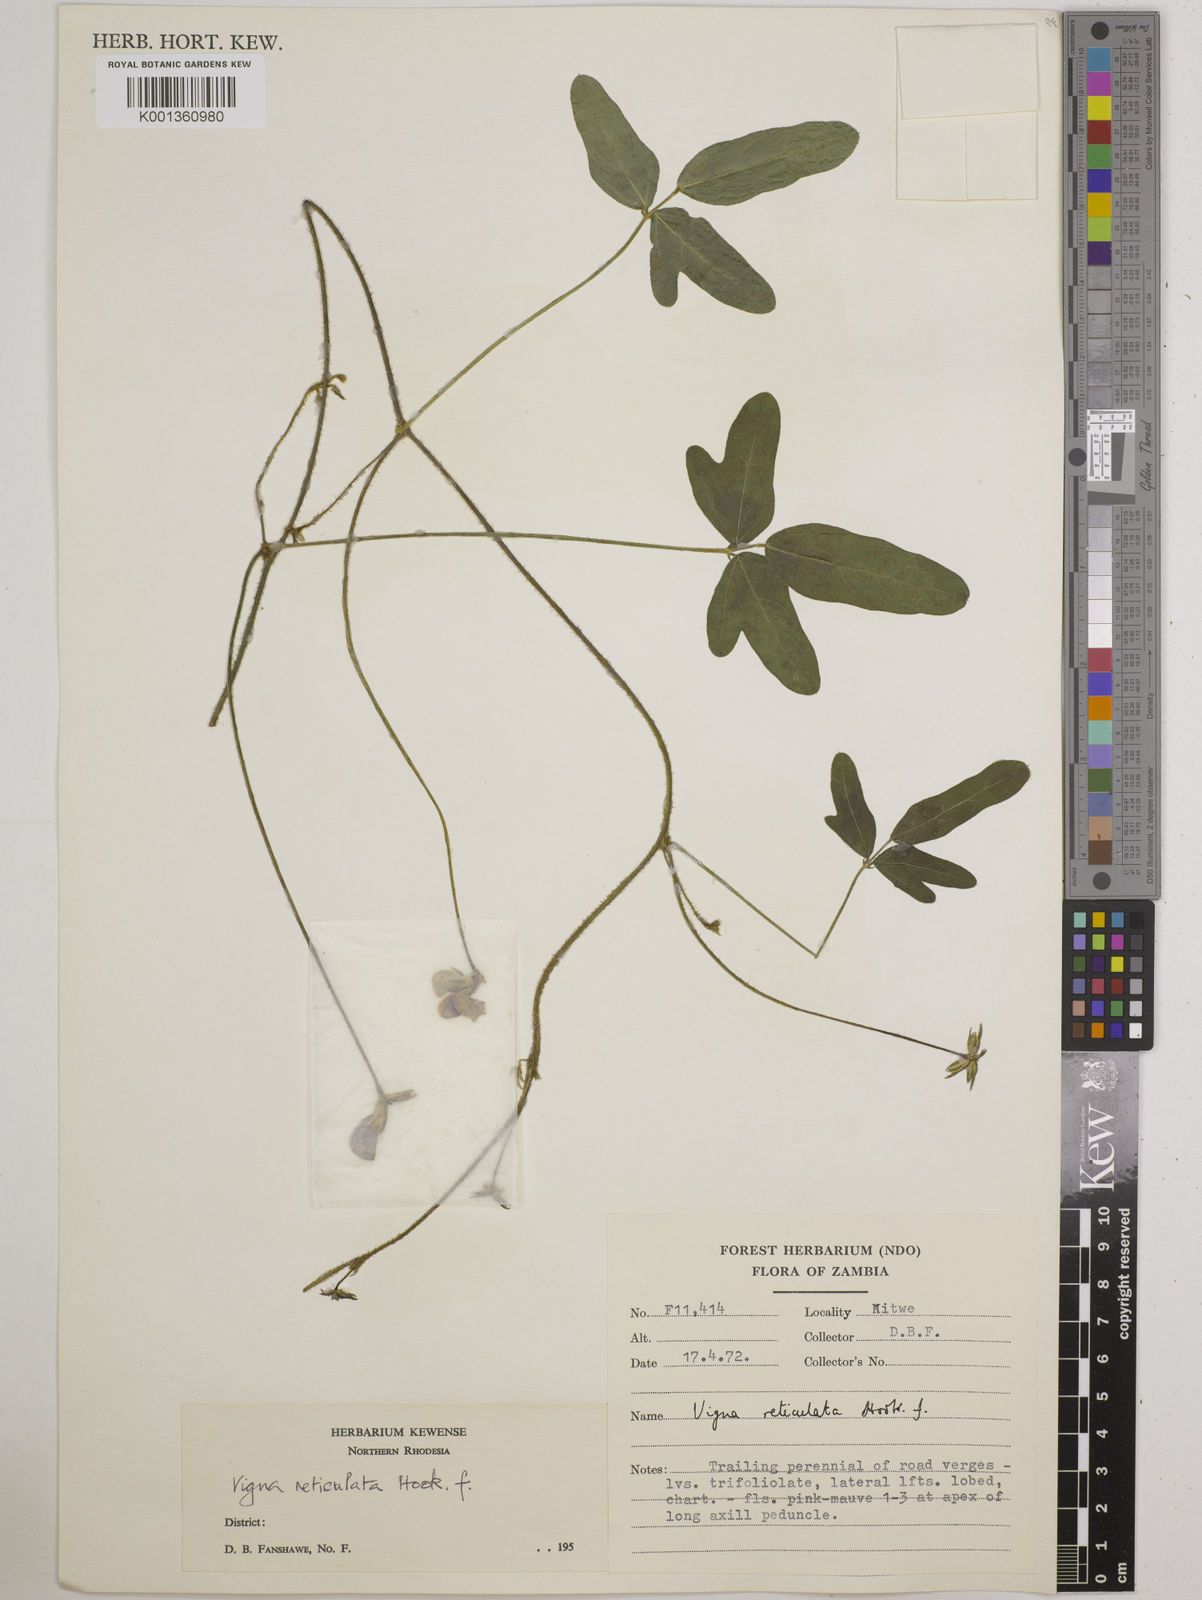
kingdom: Plantae
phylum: Tracheophyta
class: Magnoliopsida
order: Fabales
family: Fabaceae
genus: Vigna
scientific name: Vigna reticulata
